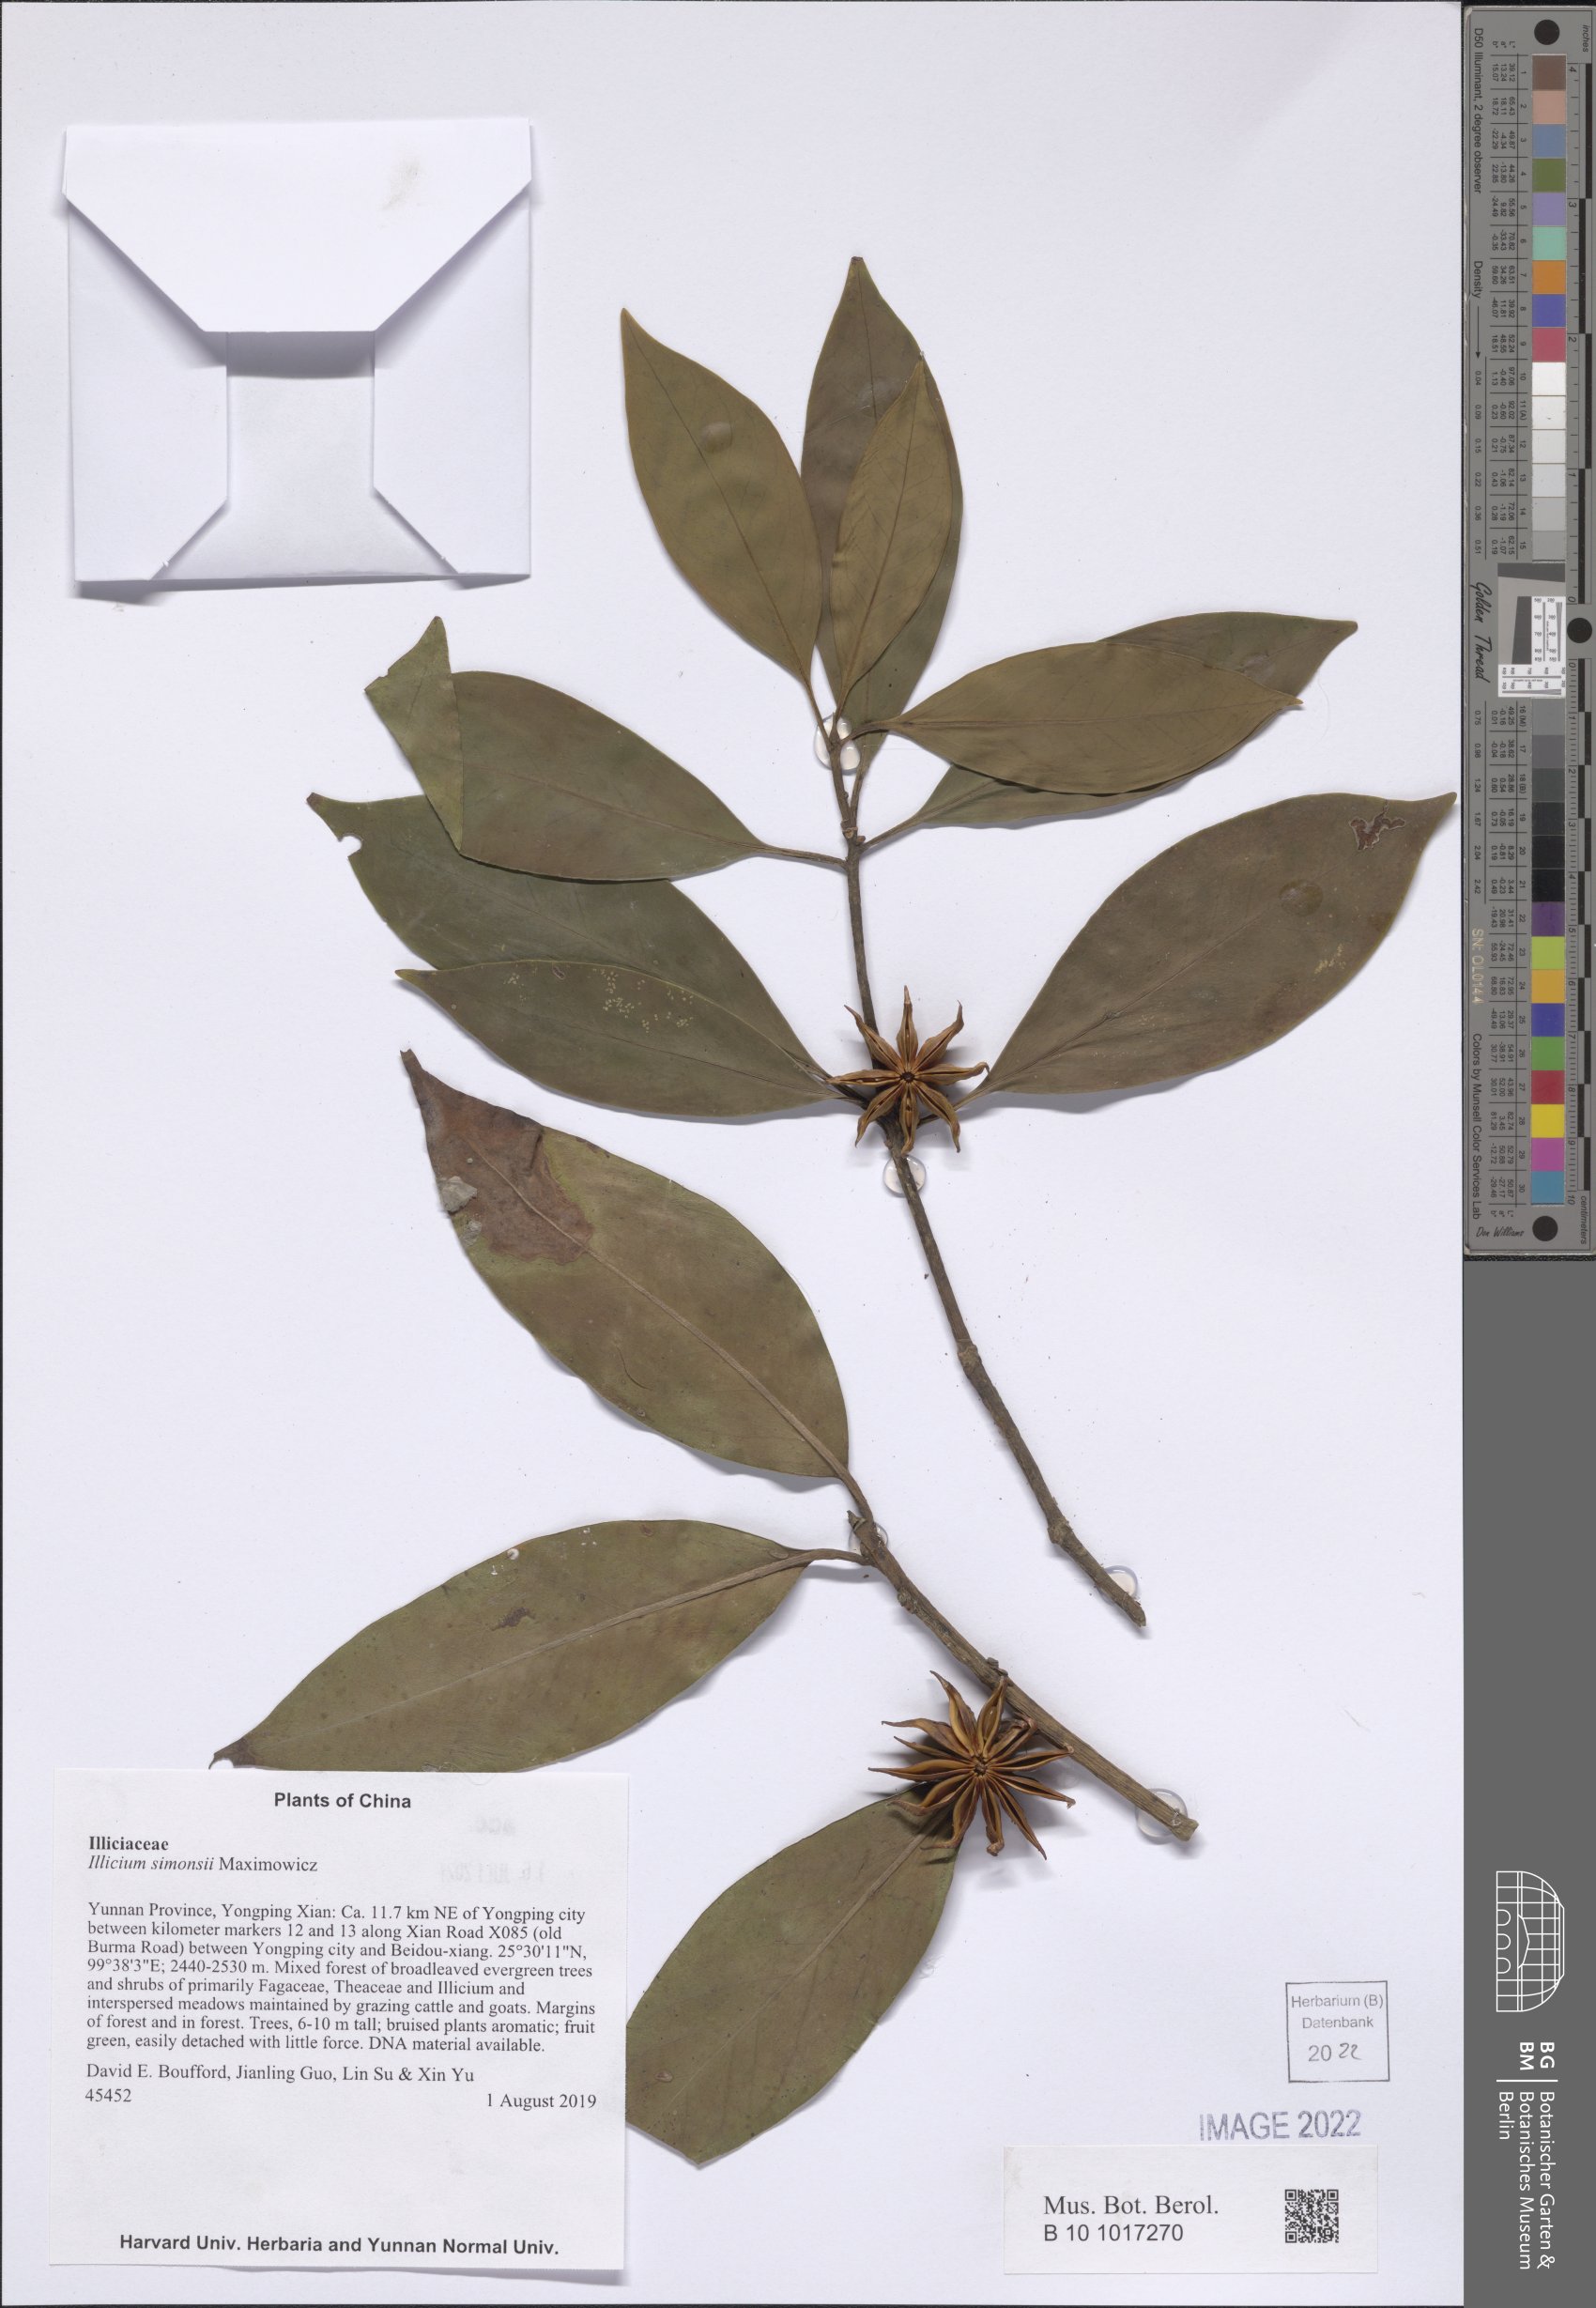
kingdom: Plantae
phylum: Tracheophyta
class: Magnoliopsida
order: Austrobaileyales
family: Schisandraceae
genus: Illicium
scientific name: Illicium simonsii
